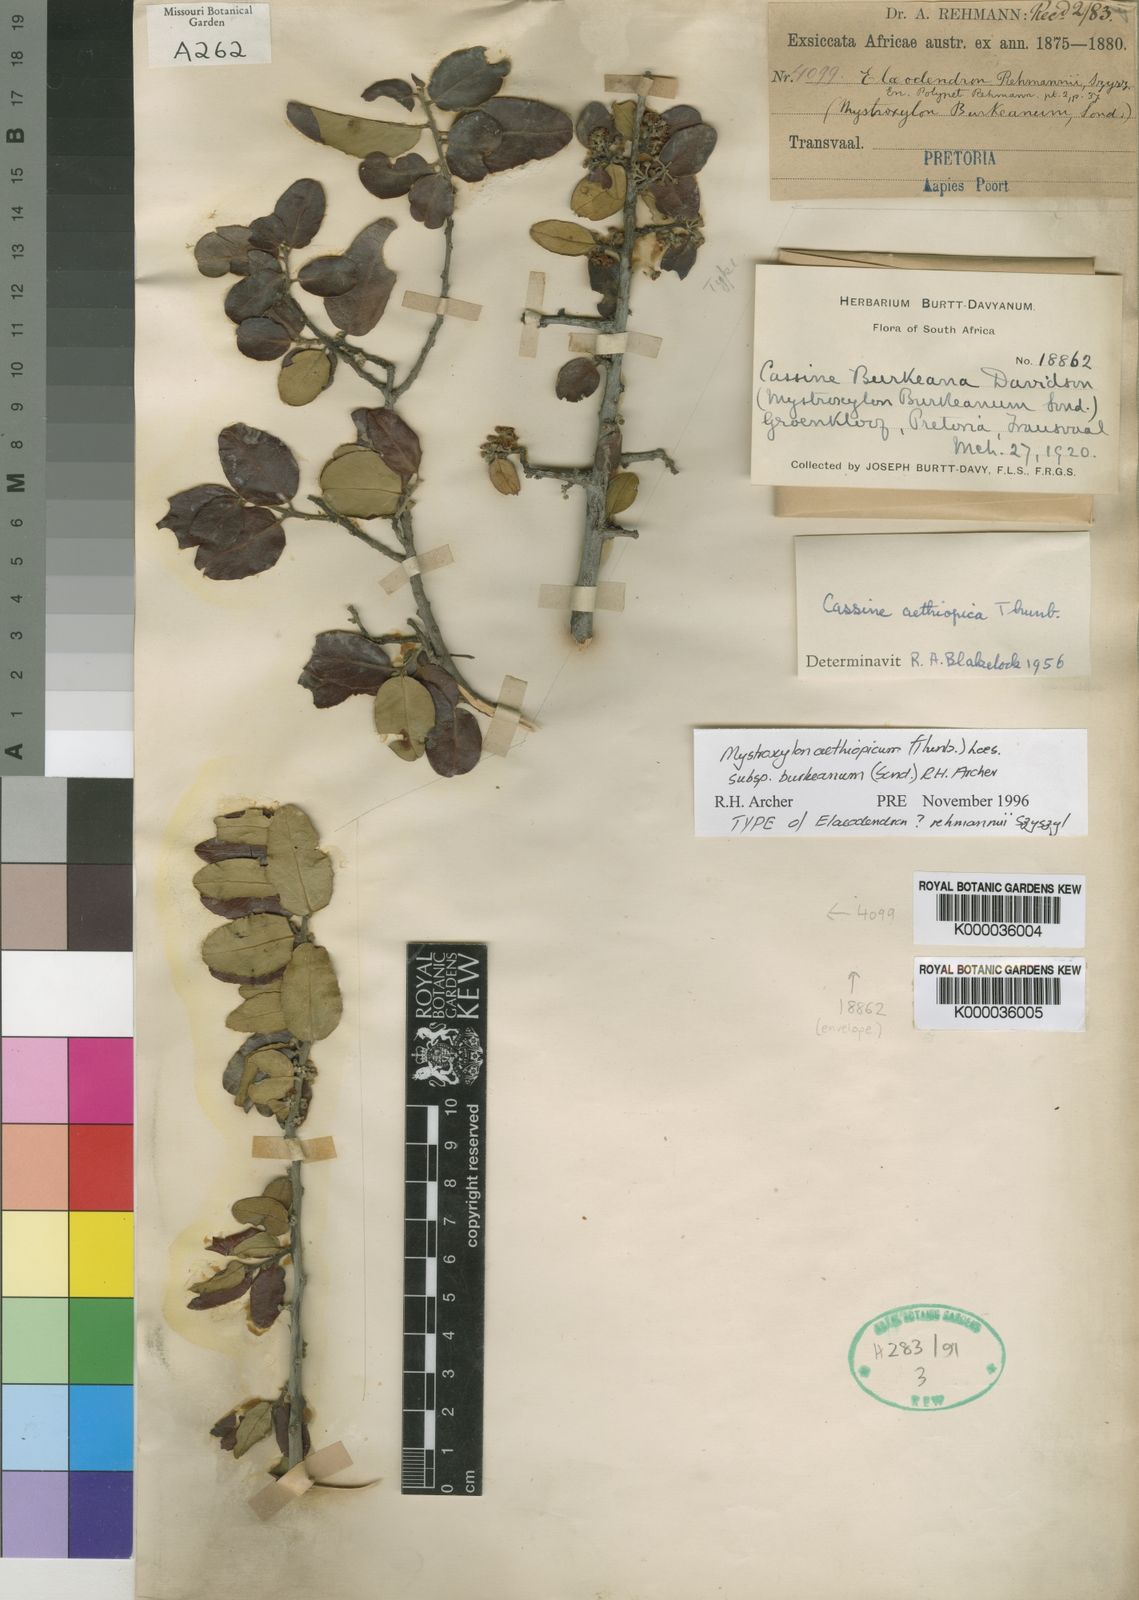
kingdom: Plantae
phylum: Tracheophyta
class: Magnoliopsida
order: Celastrales
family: Celastraceae
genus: Cassine
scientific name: Cassine burkeana
